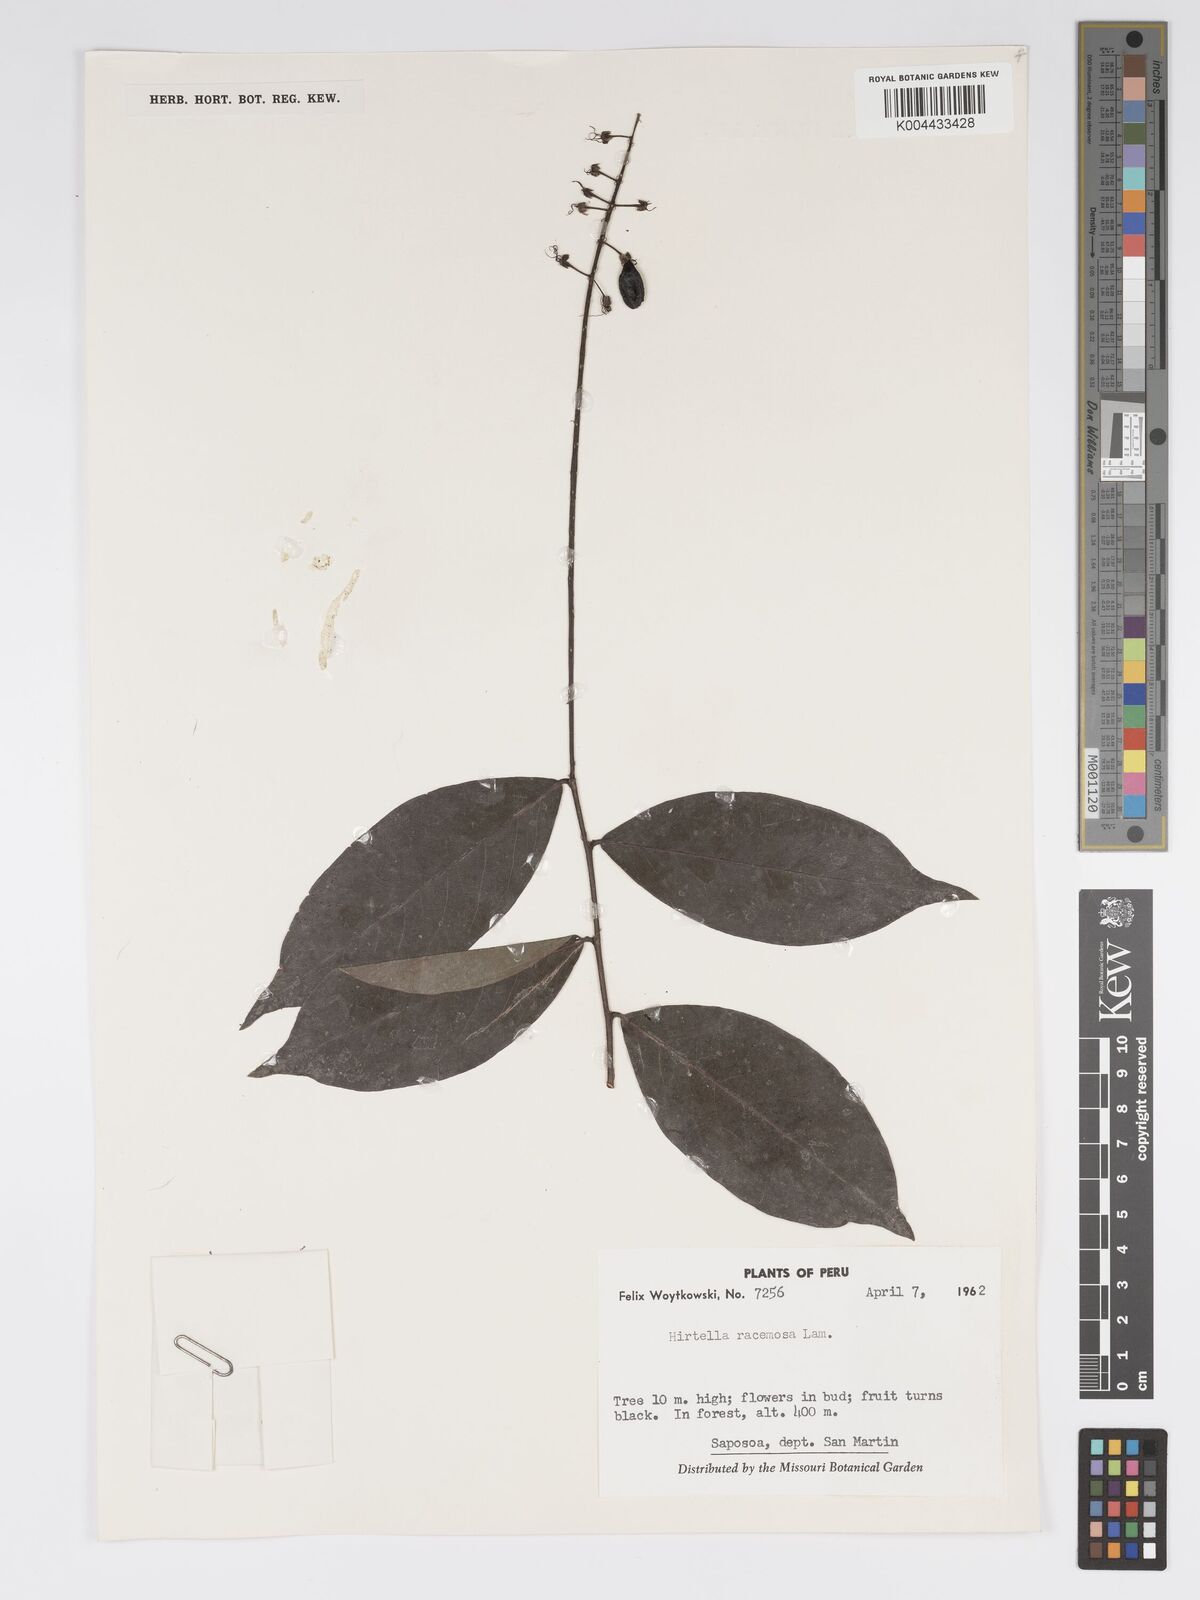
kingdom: Plantae
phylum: Tracheophyta
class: Magnoliopsida
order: Malpighiales
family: Chrysobalanaceae
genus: Hirtella
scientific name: Hirtella racemosa
